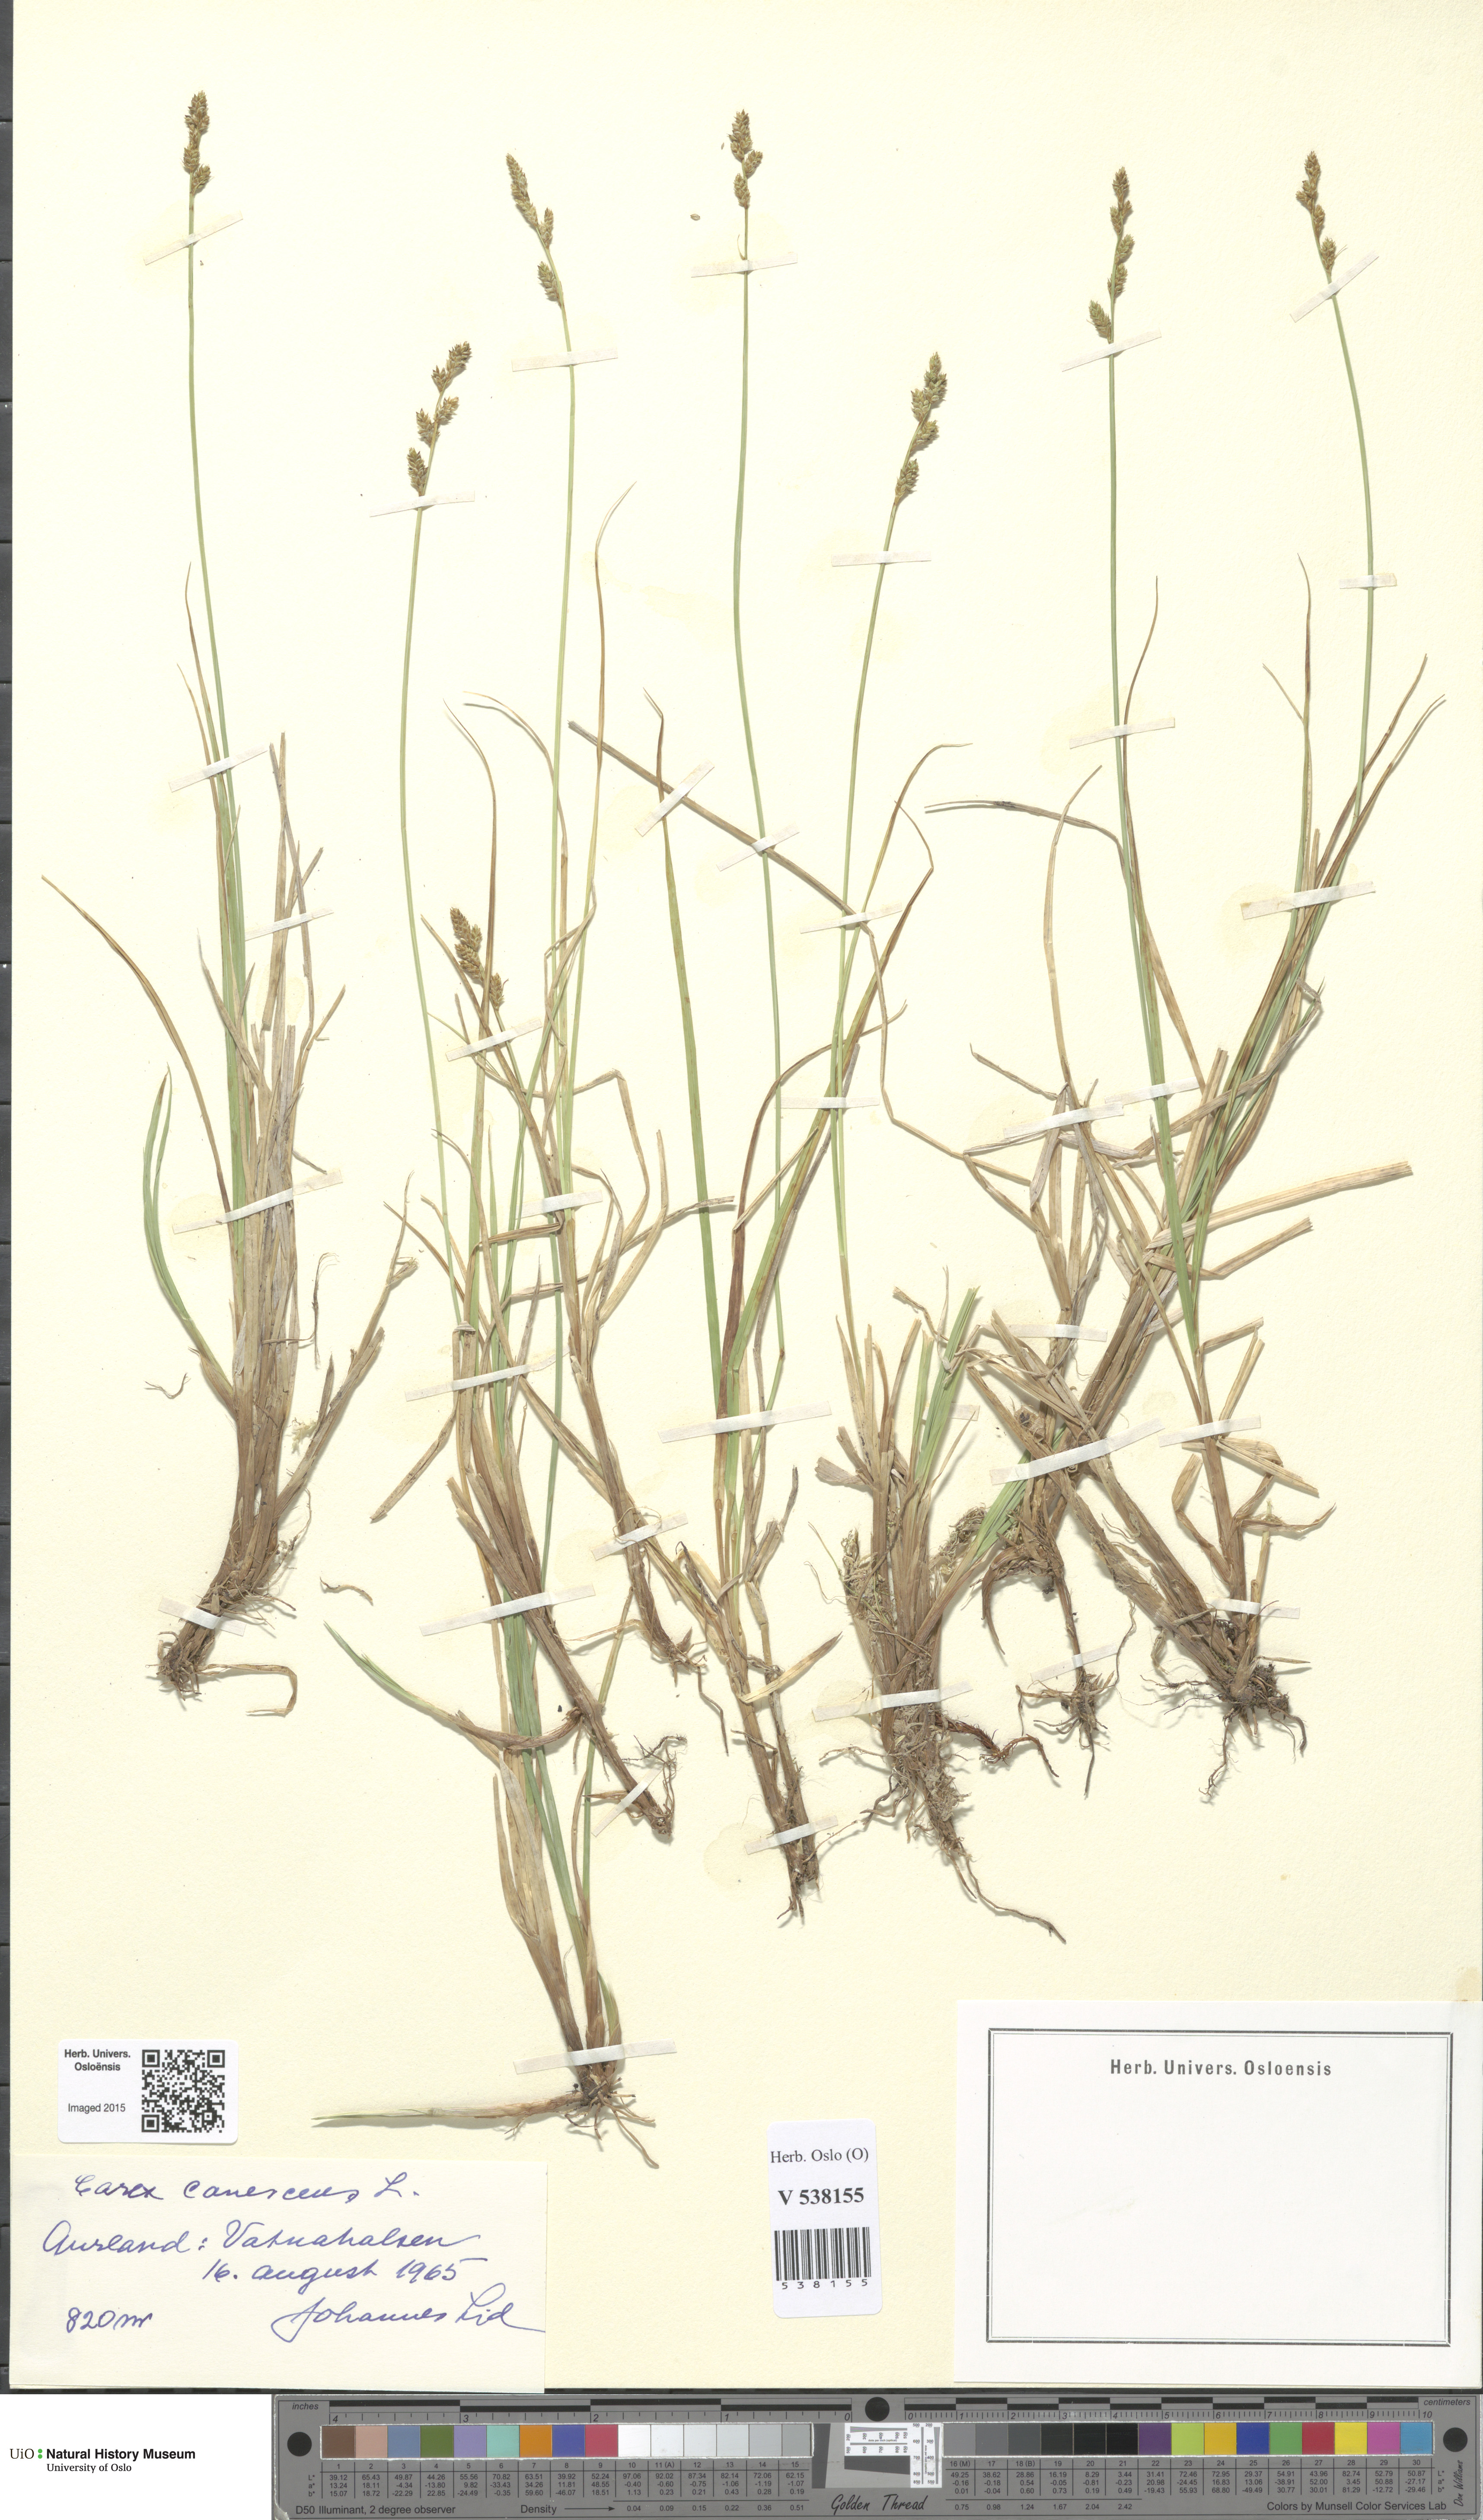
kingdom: Plantae
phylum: Tracheophyta
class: Liliopsida
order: Poales
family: Cyperaceae
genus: Carex
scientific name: Carex canescens
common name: White sedge
